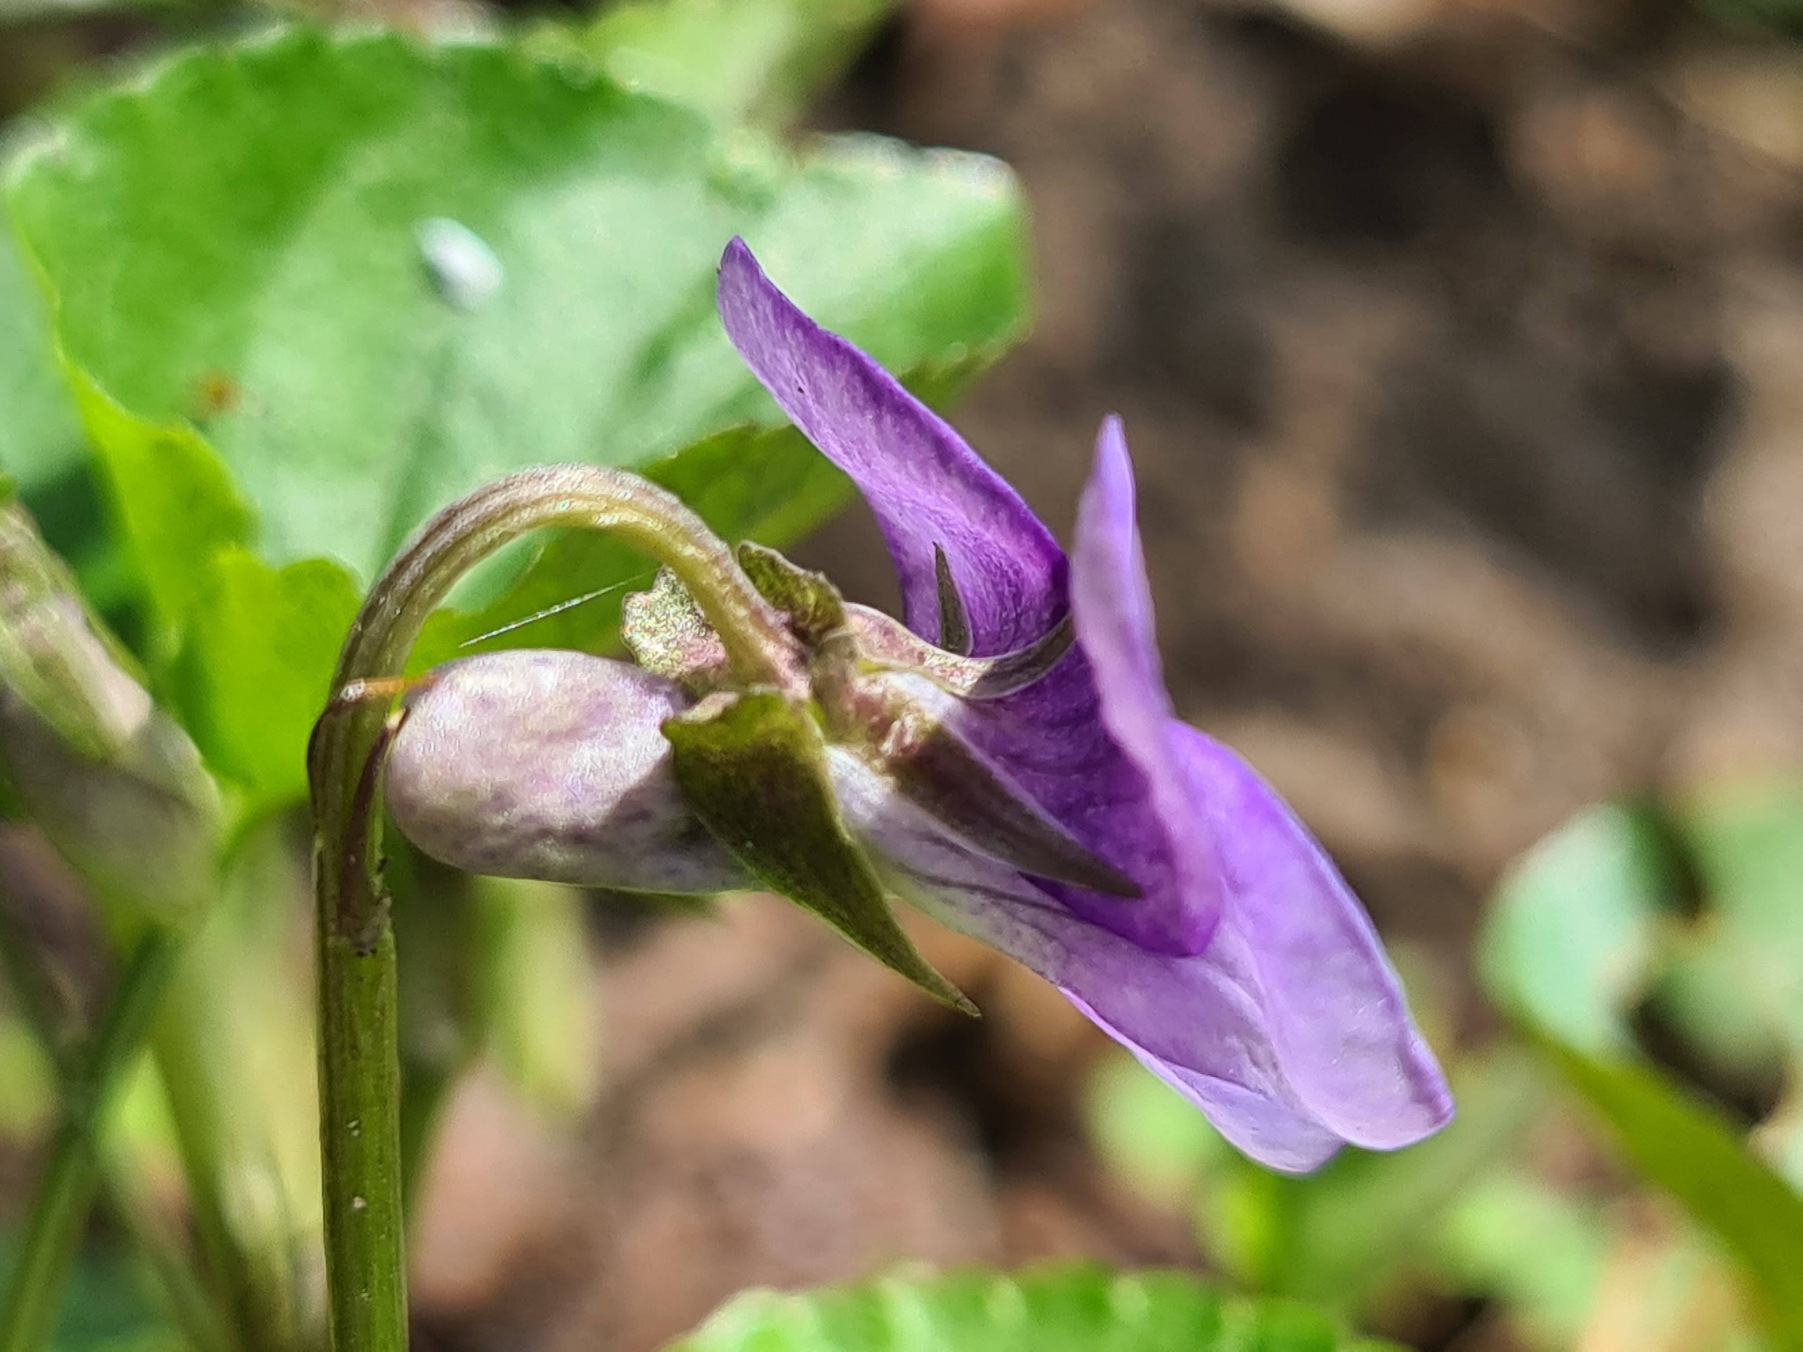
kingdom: Plantae
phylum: Tracheophyta
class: Magnoliopsida
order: Malpighiales
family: Violaceae
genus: Viola
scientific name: Viola riviniana
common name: Krat-viol
